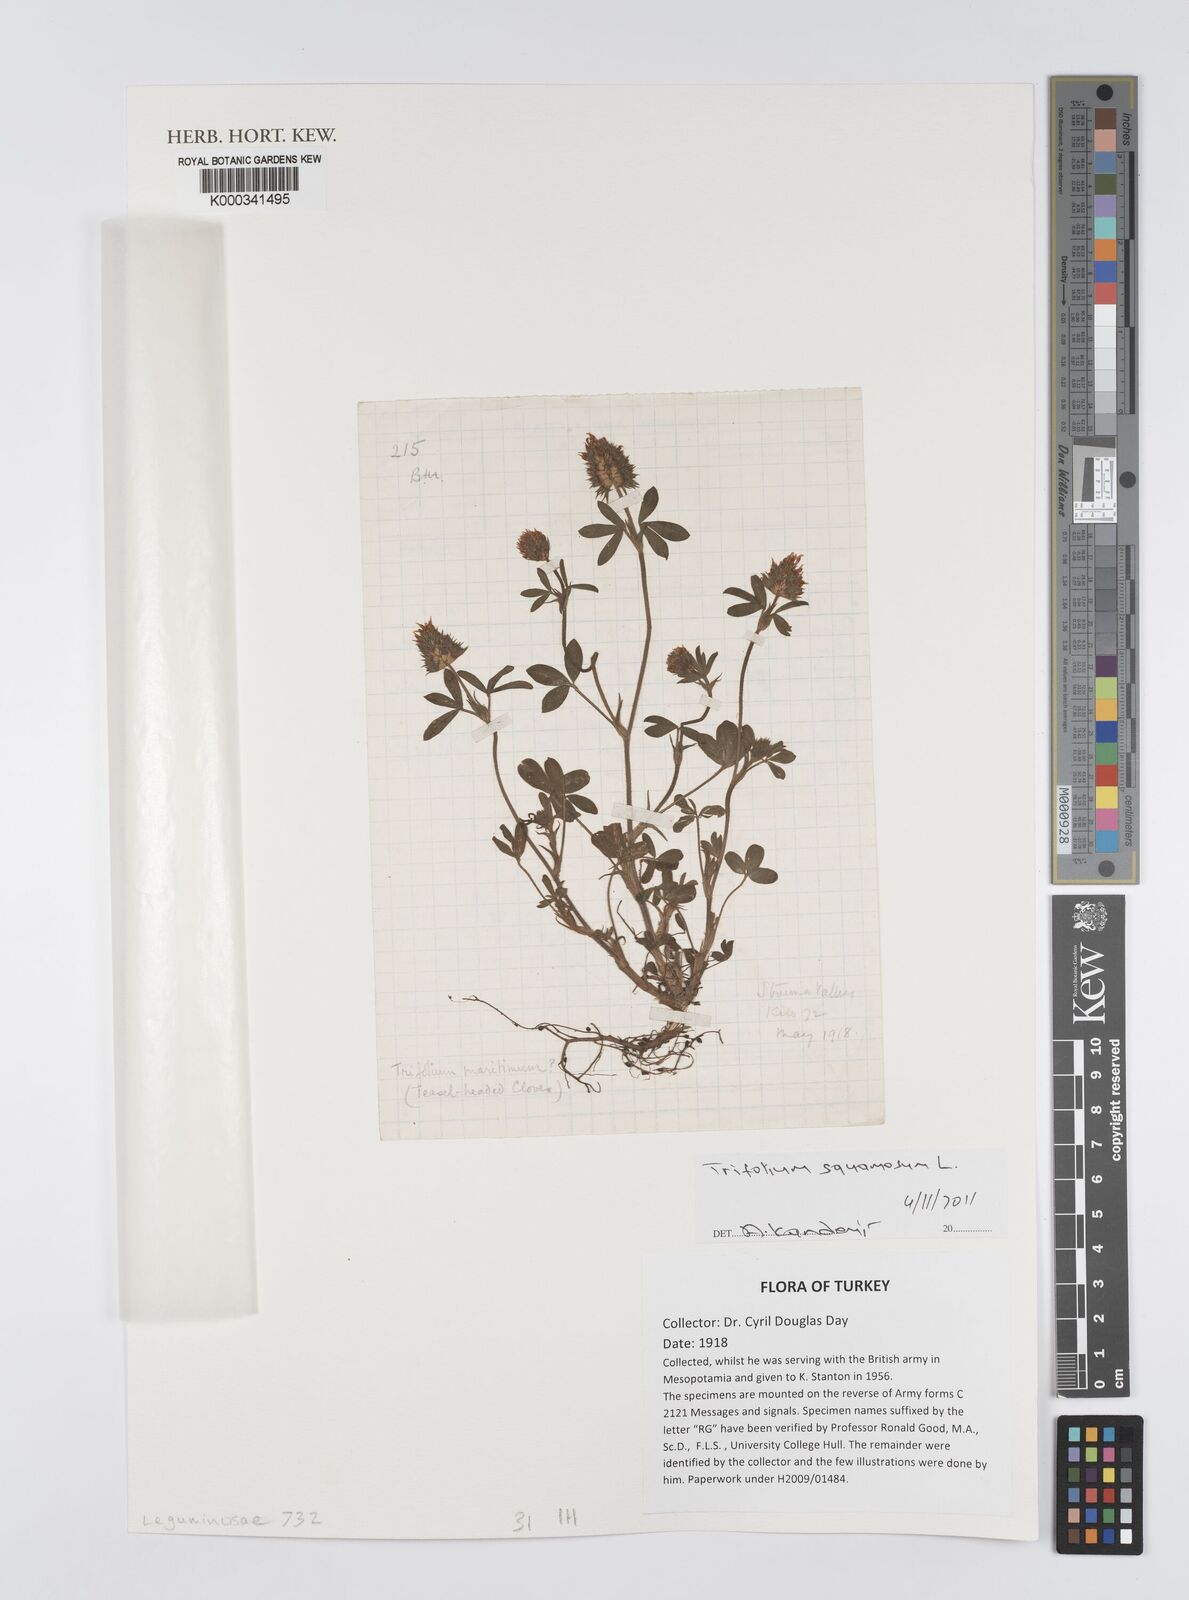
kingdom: Plantae
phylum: Tracheophyta
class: Magnoliopsida
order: Fabales
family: Fabaceae
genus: Trifolium
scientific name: Trifolium squamosum
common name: Sea clover
